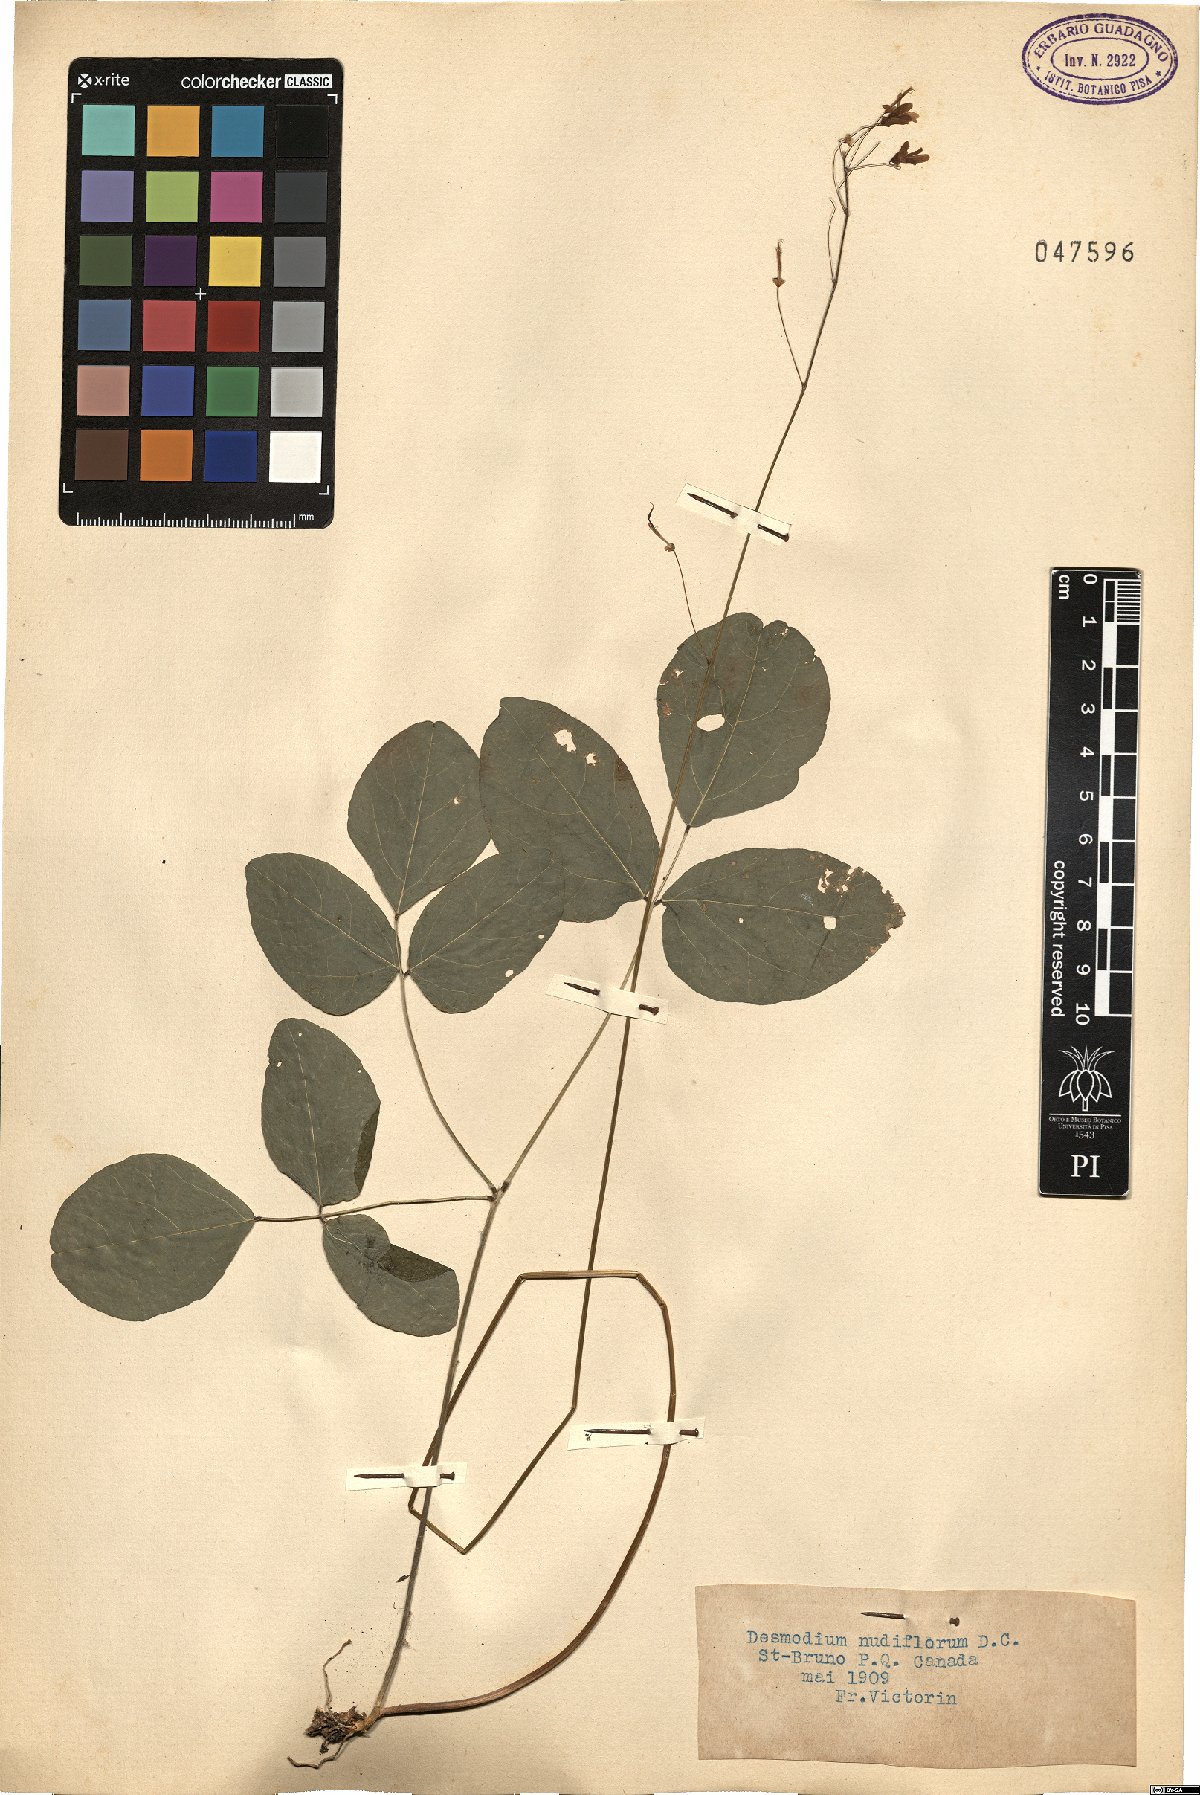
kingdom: Plantae
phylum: Tracheophyta
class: Magnoliopsida
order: Fabales
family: Fabaceae
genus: Hylodesmum
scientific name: Hylodesmum nudiflorum
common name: Bare-stemmed tick-trefoil
